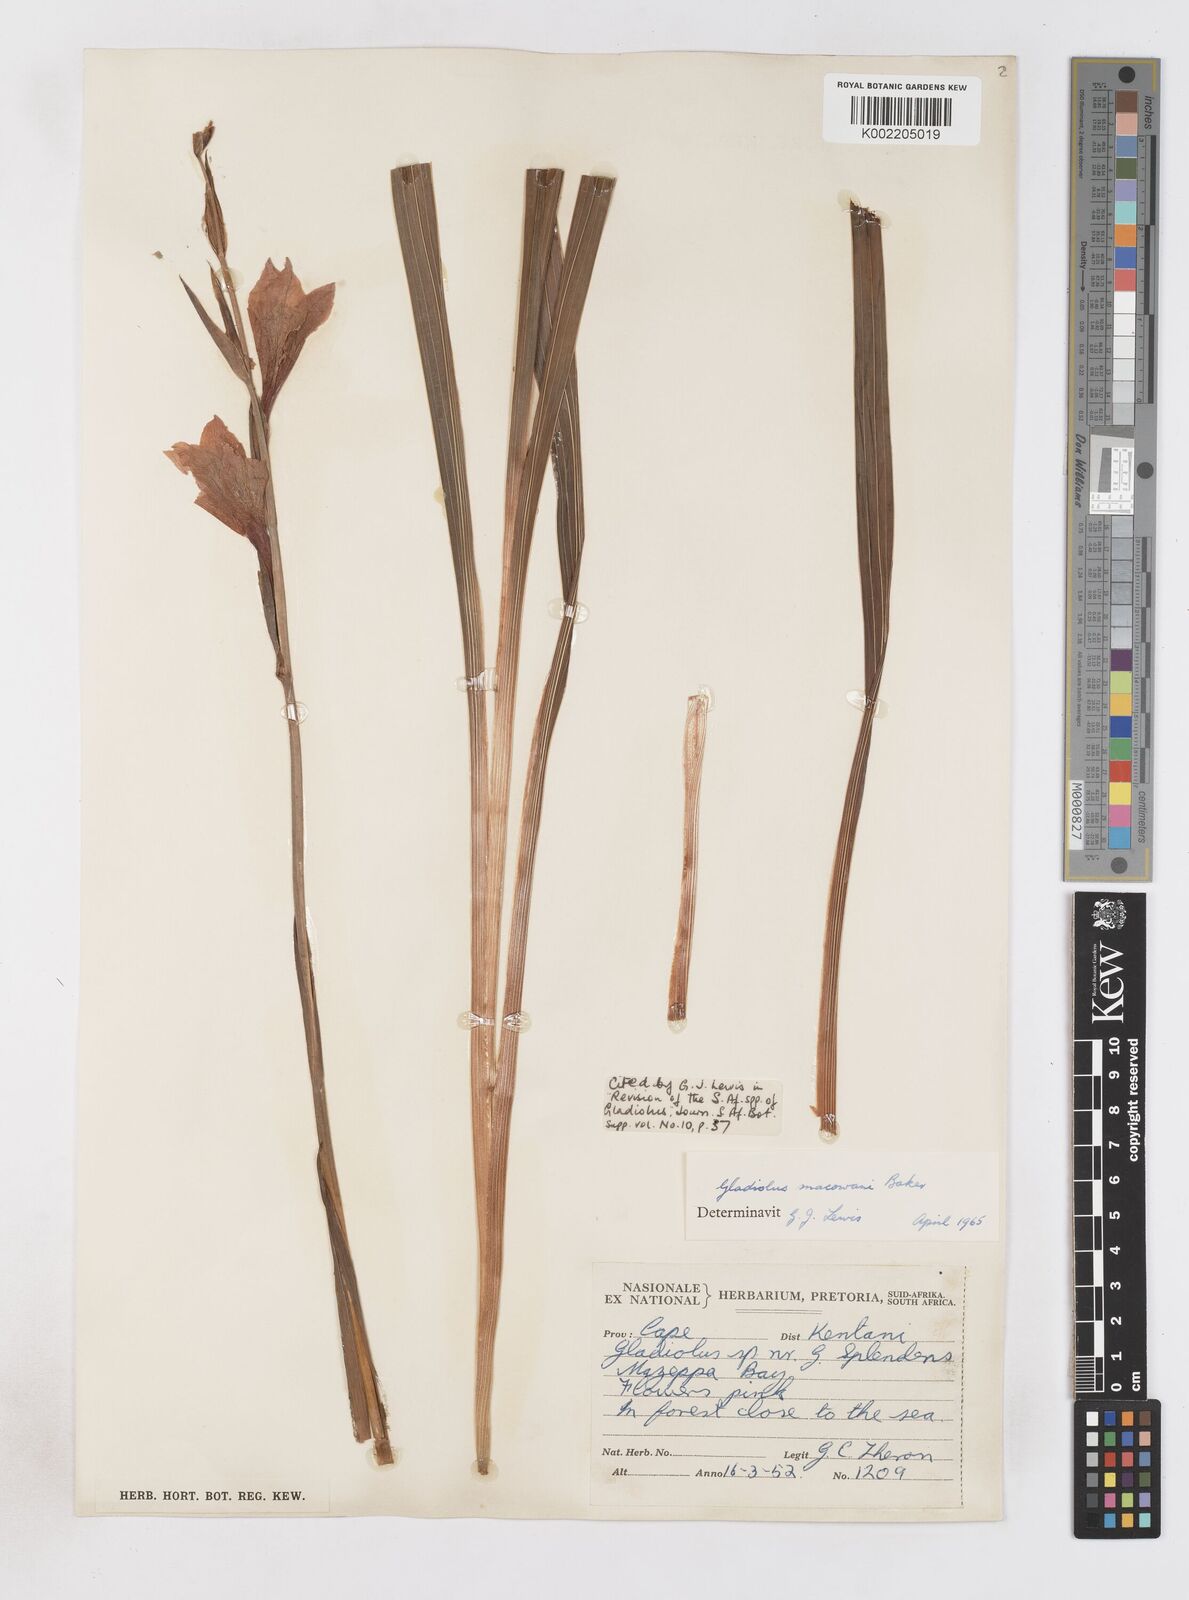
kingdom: Plantae
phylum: Tracheophyta
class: Liliopsida
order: Asparagales
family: Iridaceae
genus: Gladiolus
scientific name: Gladiolus mortonius
